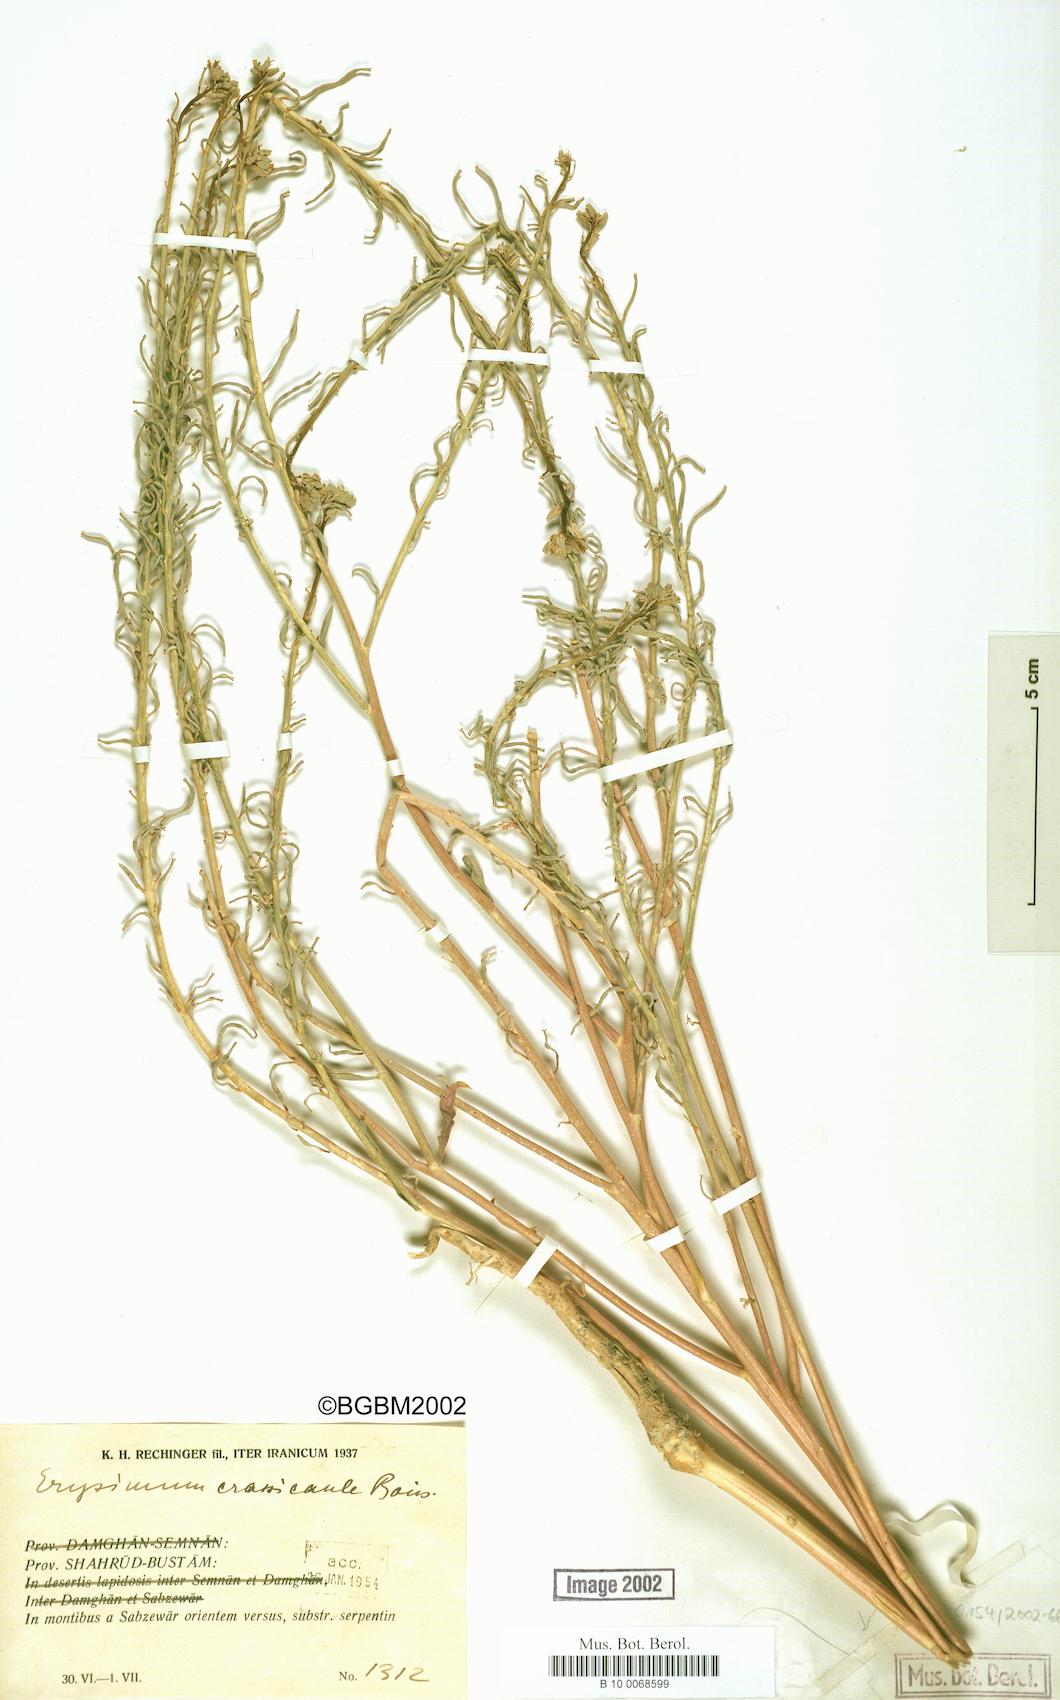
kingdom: Plantae
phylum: Tracheophyta
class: Magnoliopsida
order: Brassicales
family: Brassicaceae
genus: Erysimum
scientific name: Erysimum crassicaule
